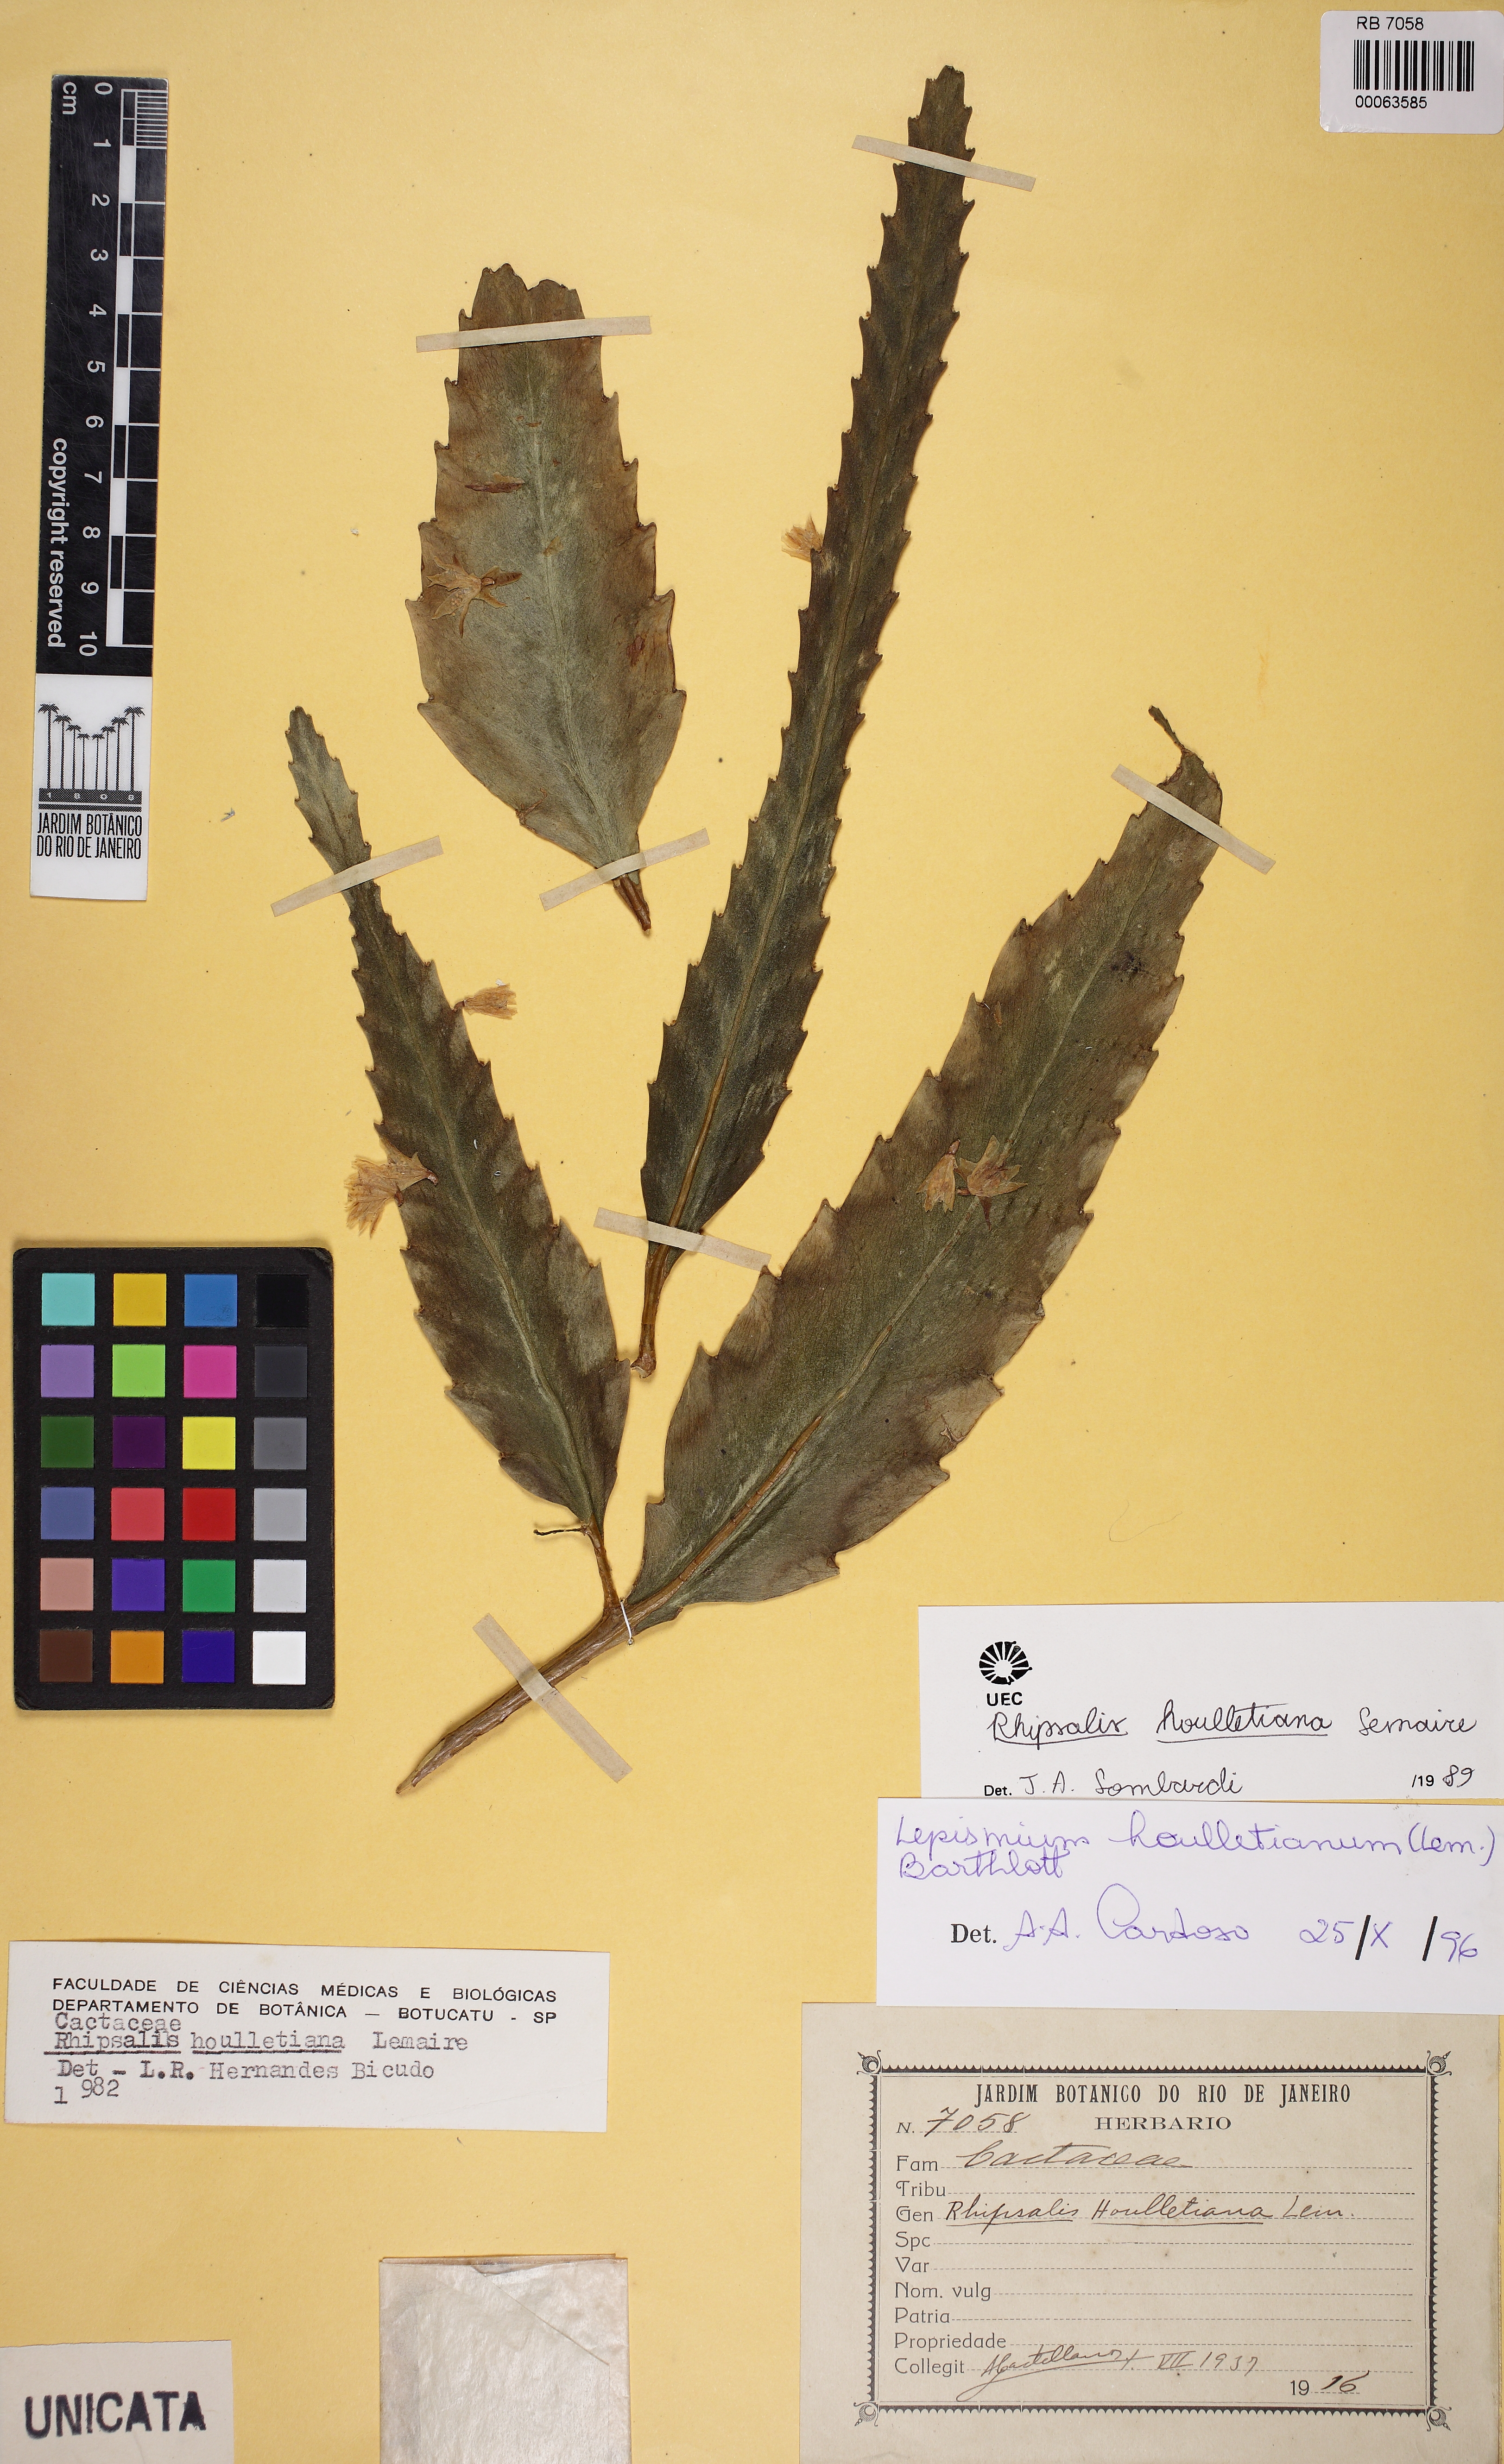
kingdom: Plantae
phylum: Tracheophyta
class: Magnoliopsida
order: Caryophyllales
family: Cactaceae
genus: Lepismium
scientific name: Lepismium houlletianum
